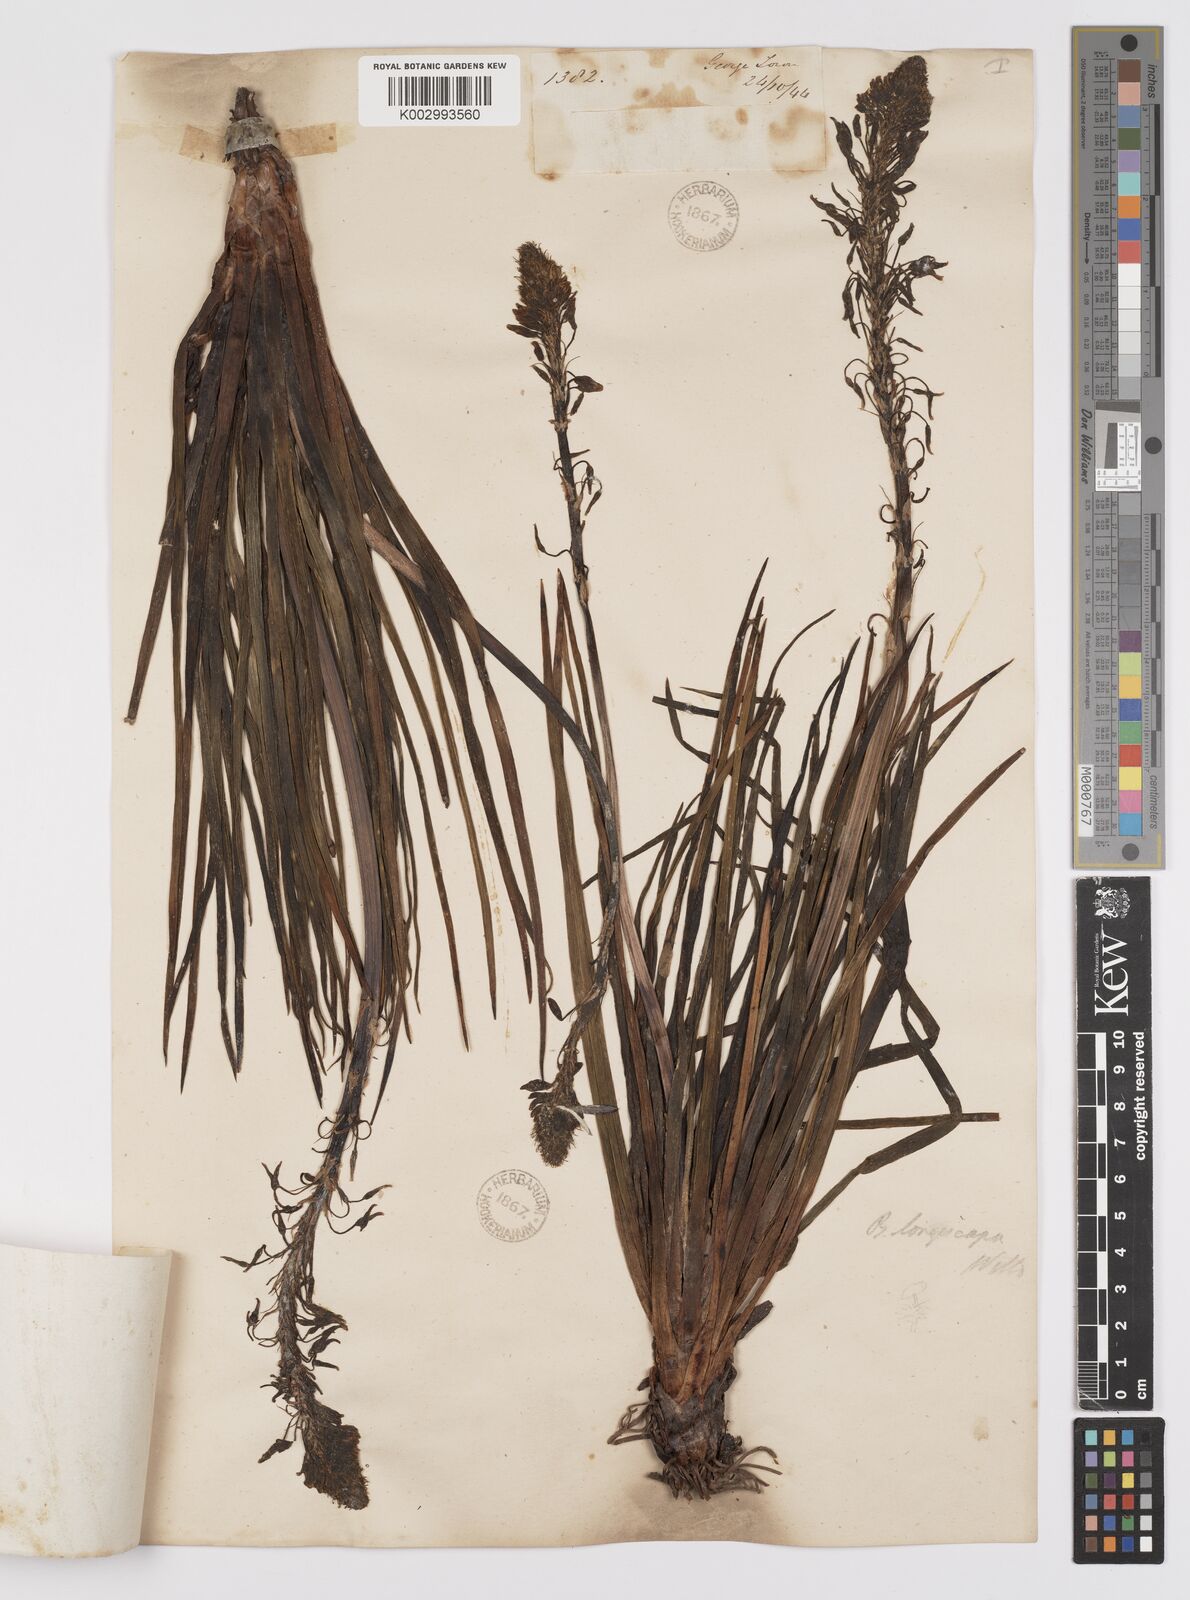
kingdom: Plantae
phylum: Tracheophyta
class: Liliopsida
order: Asparagales
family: Asphodelaceae
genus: Bulbine
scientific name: Bulbine asphodeloides
